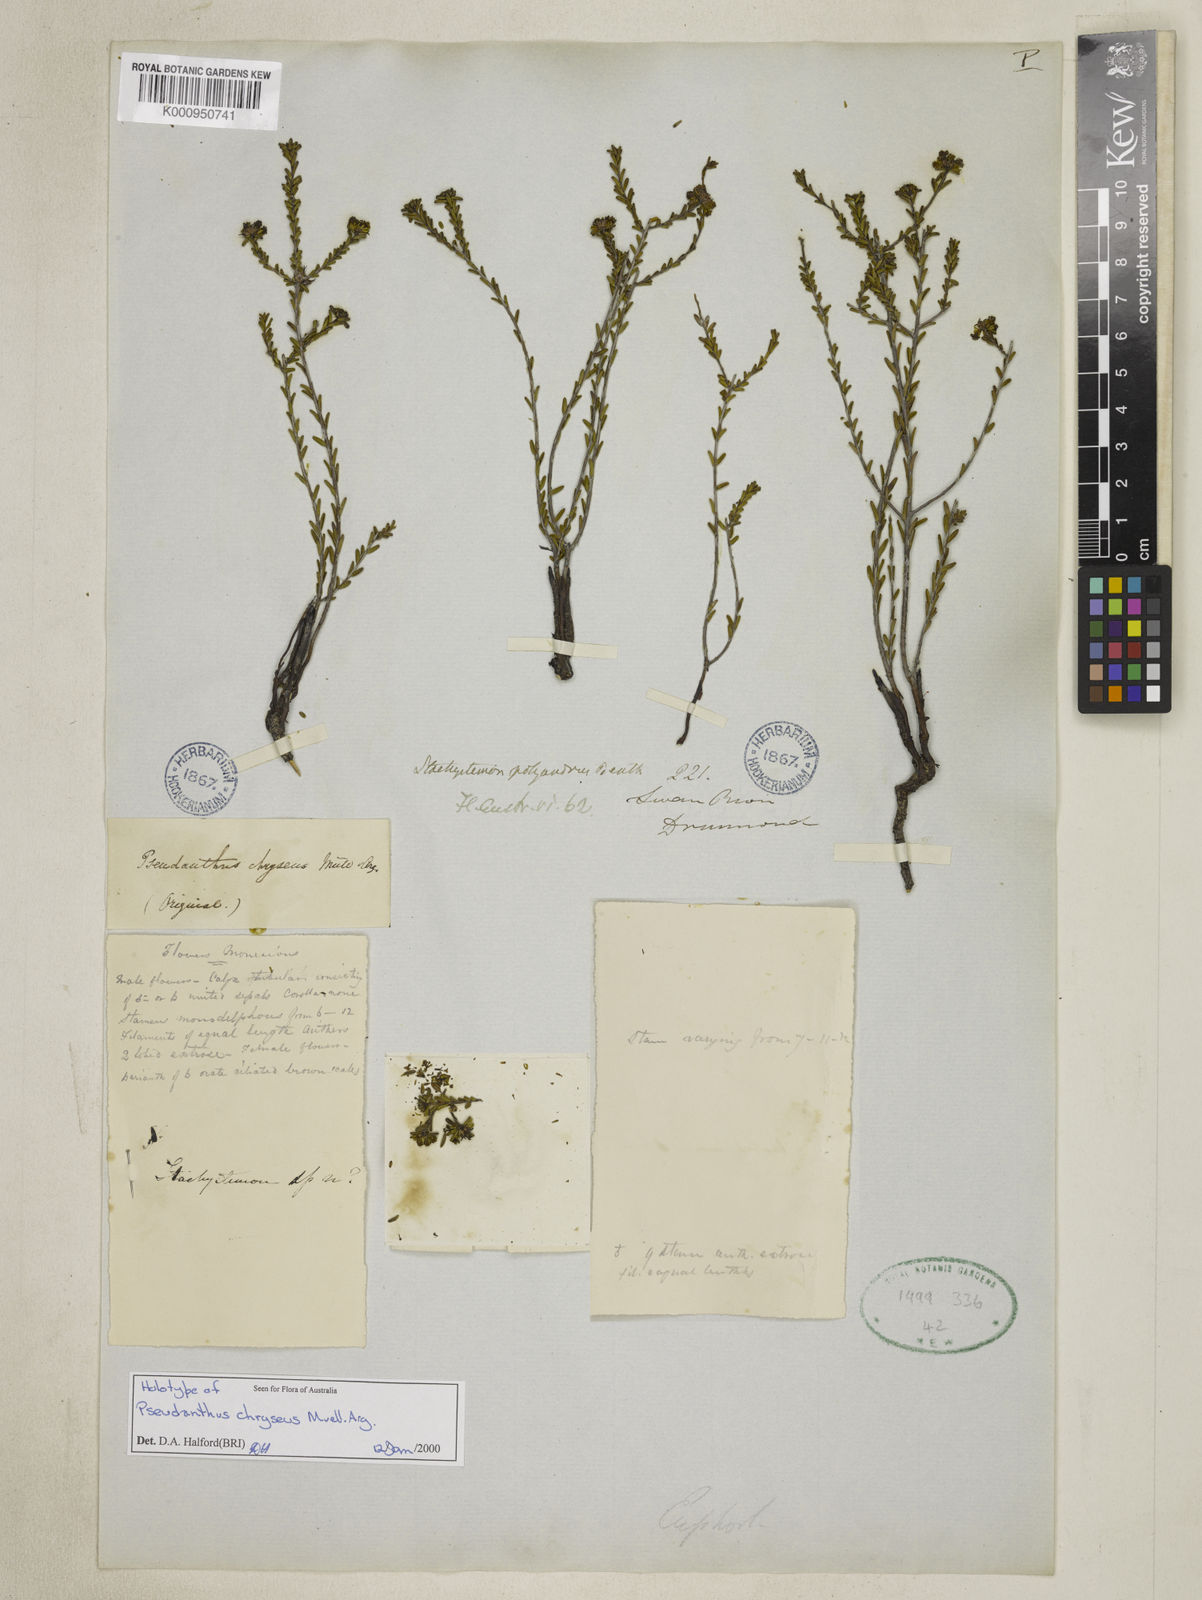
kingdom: Plantae
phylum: Tracheophyta
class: Magnoliopsida
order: Malpighiales
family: Picrodendraceae
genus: Pseudanthus
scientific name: Pseudanthus pimeleoides
